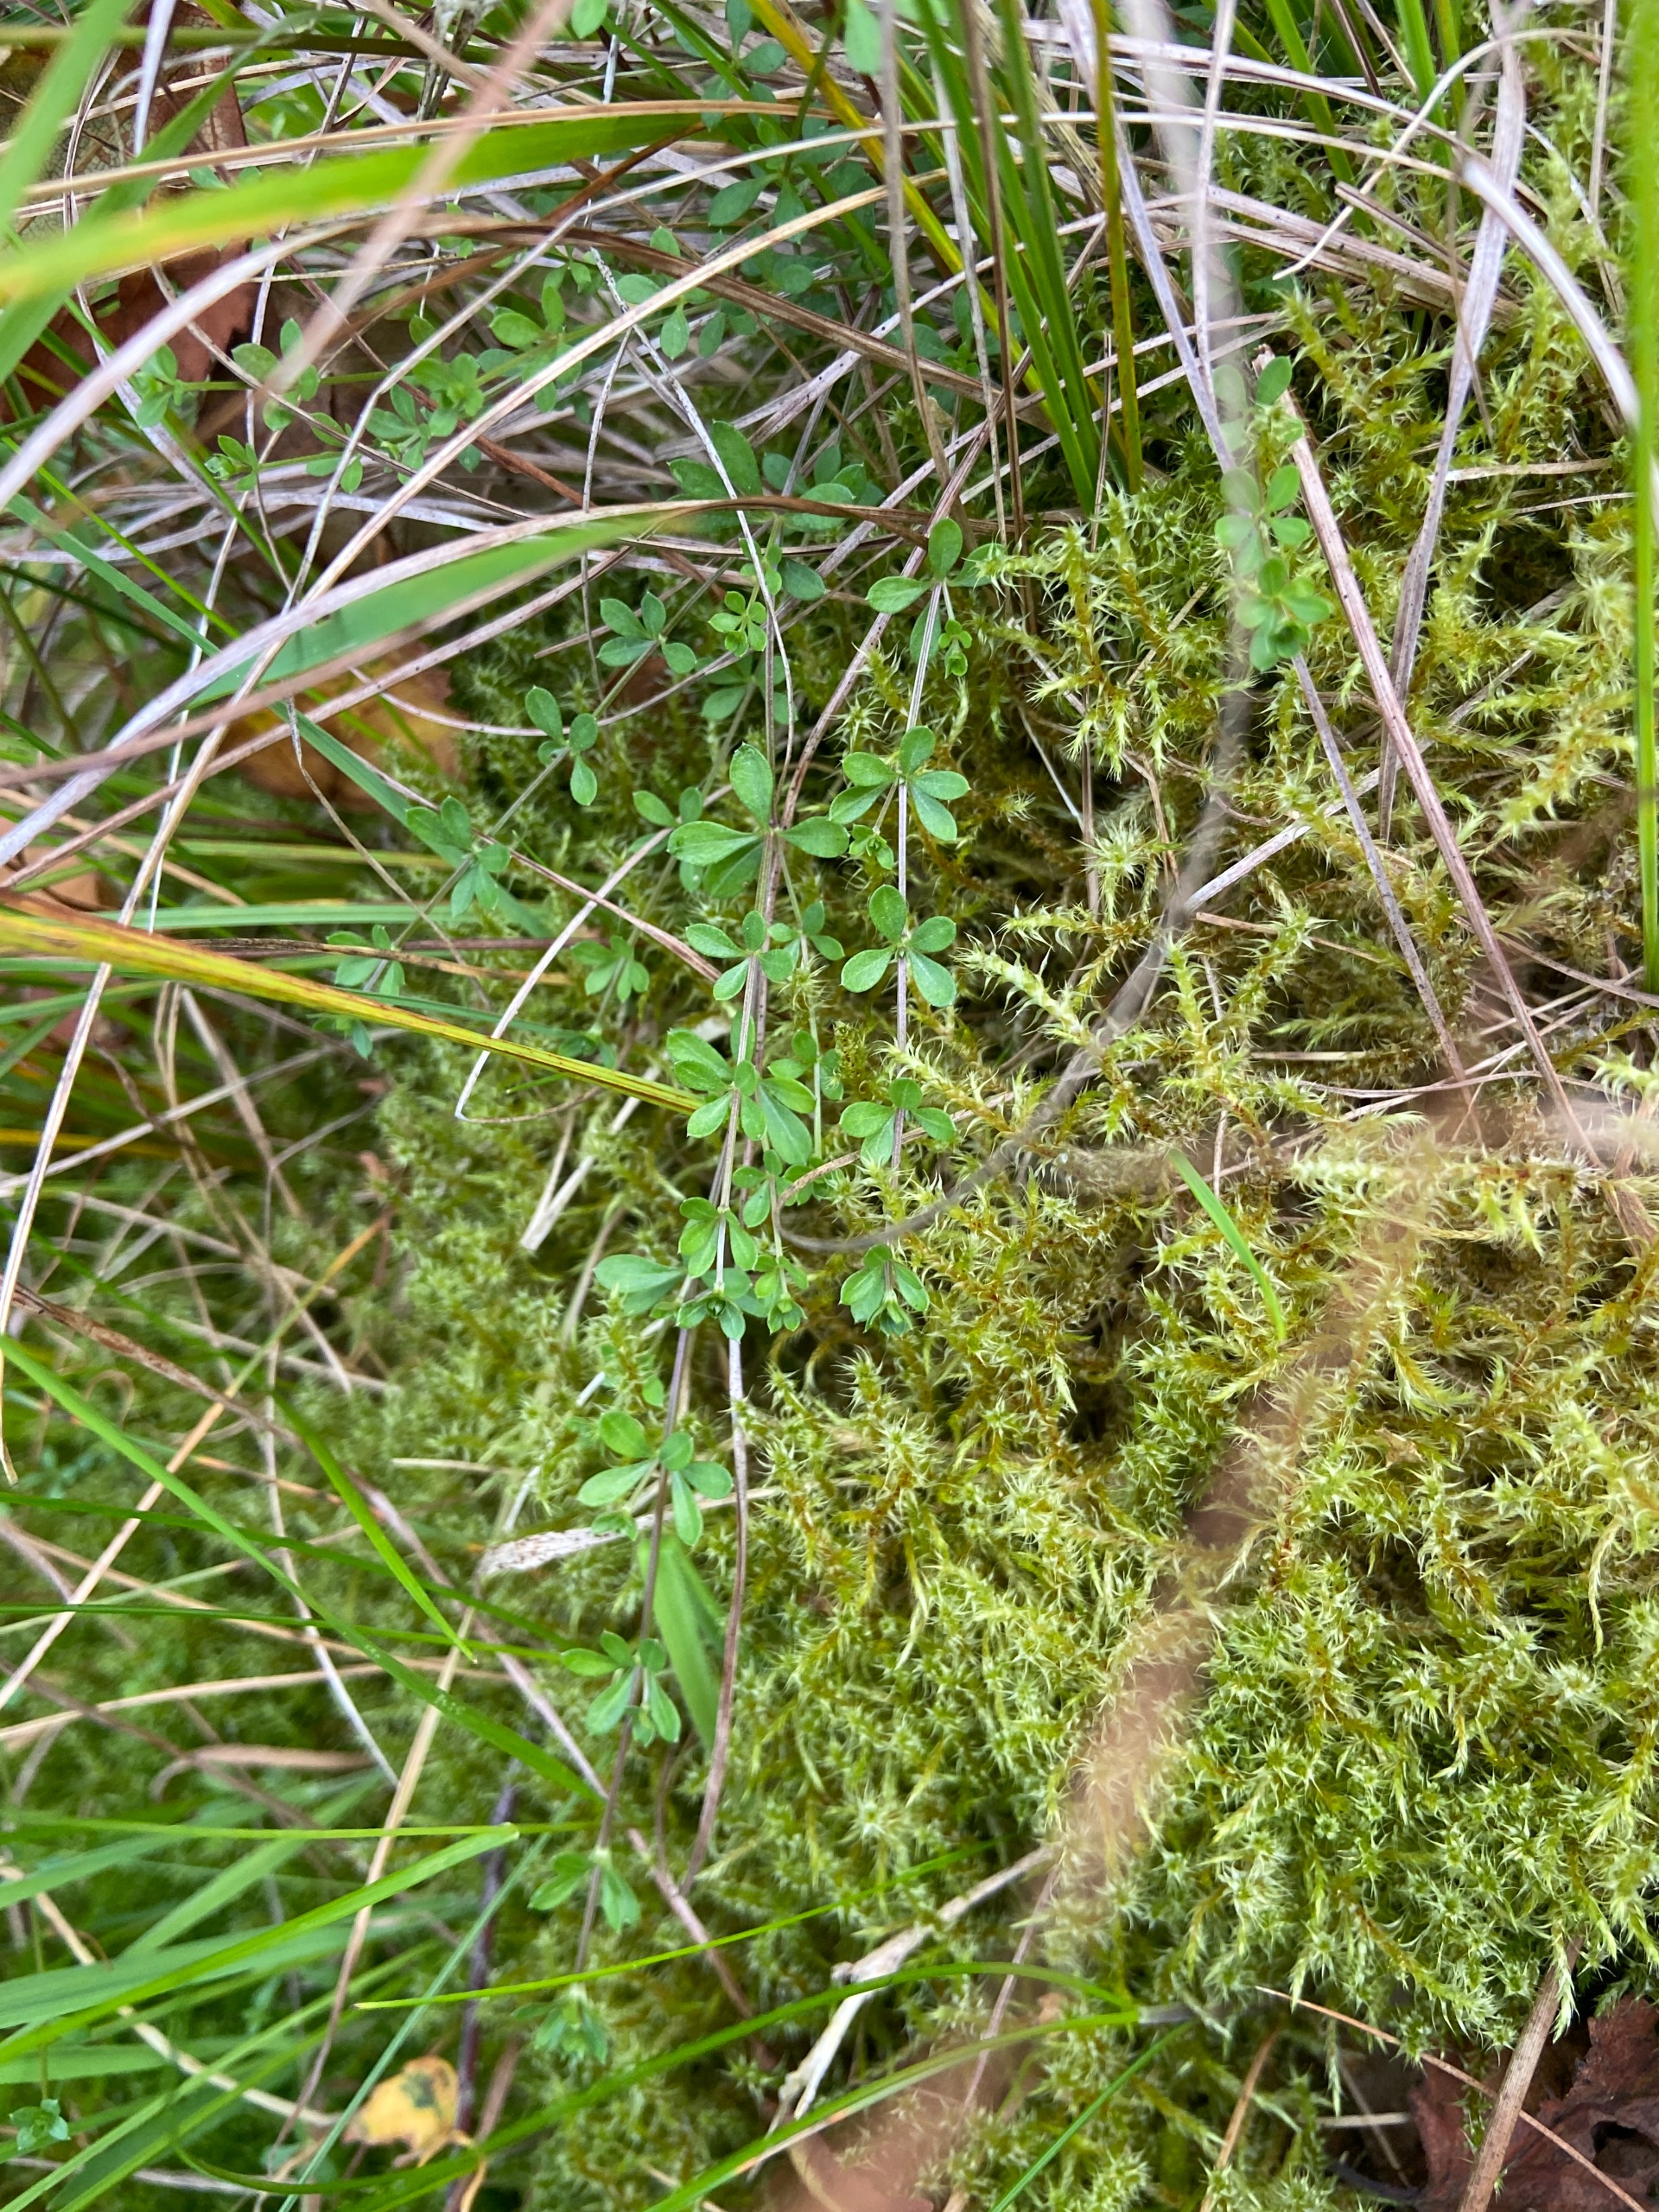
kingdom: Plantae
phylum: Tracheophyta
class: Magnoliopsida
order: Gentianales
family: Rubiaceae
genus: Galium
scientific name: Galium saxatile
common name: Lyng-snerre
